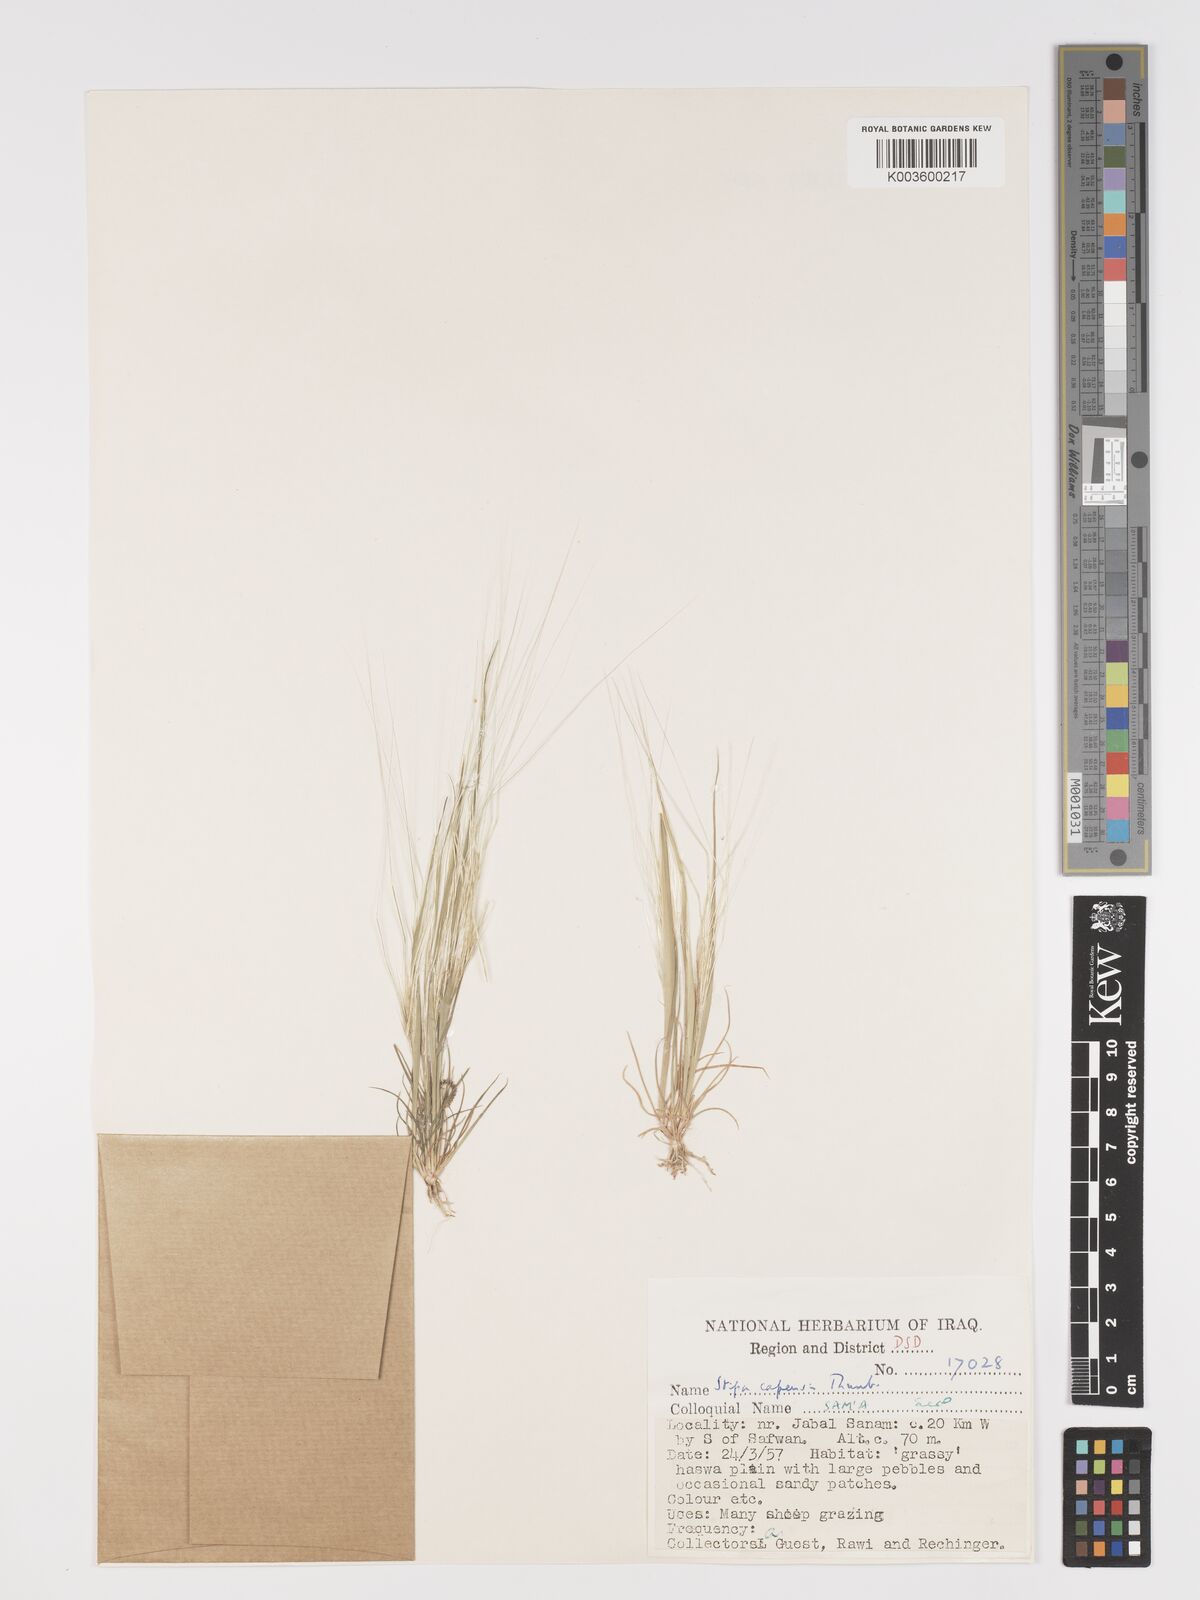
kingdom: Plantae
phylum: Tracheophyta
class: Liliopsida
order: Poales
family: Poaceae
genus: Stipellula
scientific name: Stipellula capensis
